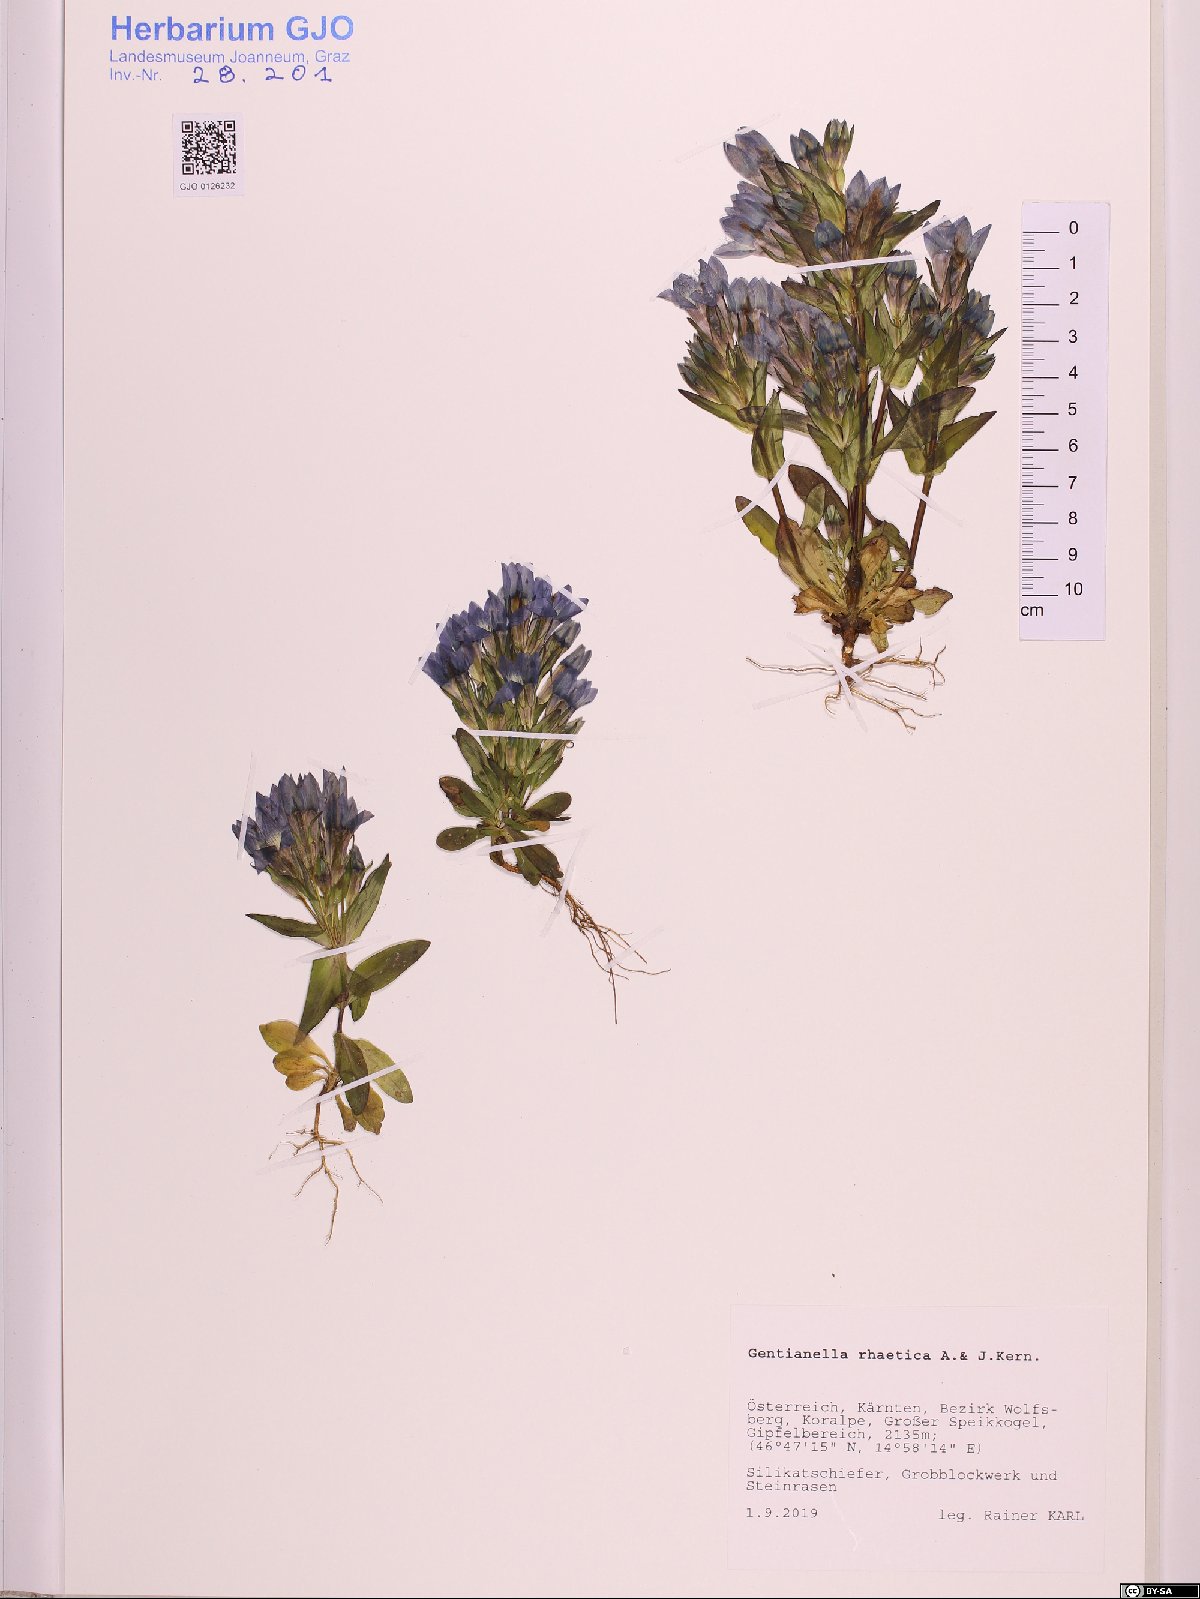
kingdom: Plantae
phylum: Tracheophyta
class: Magnoliopsida
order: Gentianales
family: Gentianaceae
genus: Gentianella
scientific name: Gentianella rhaetica
